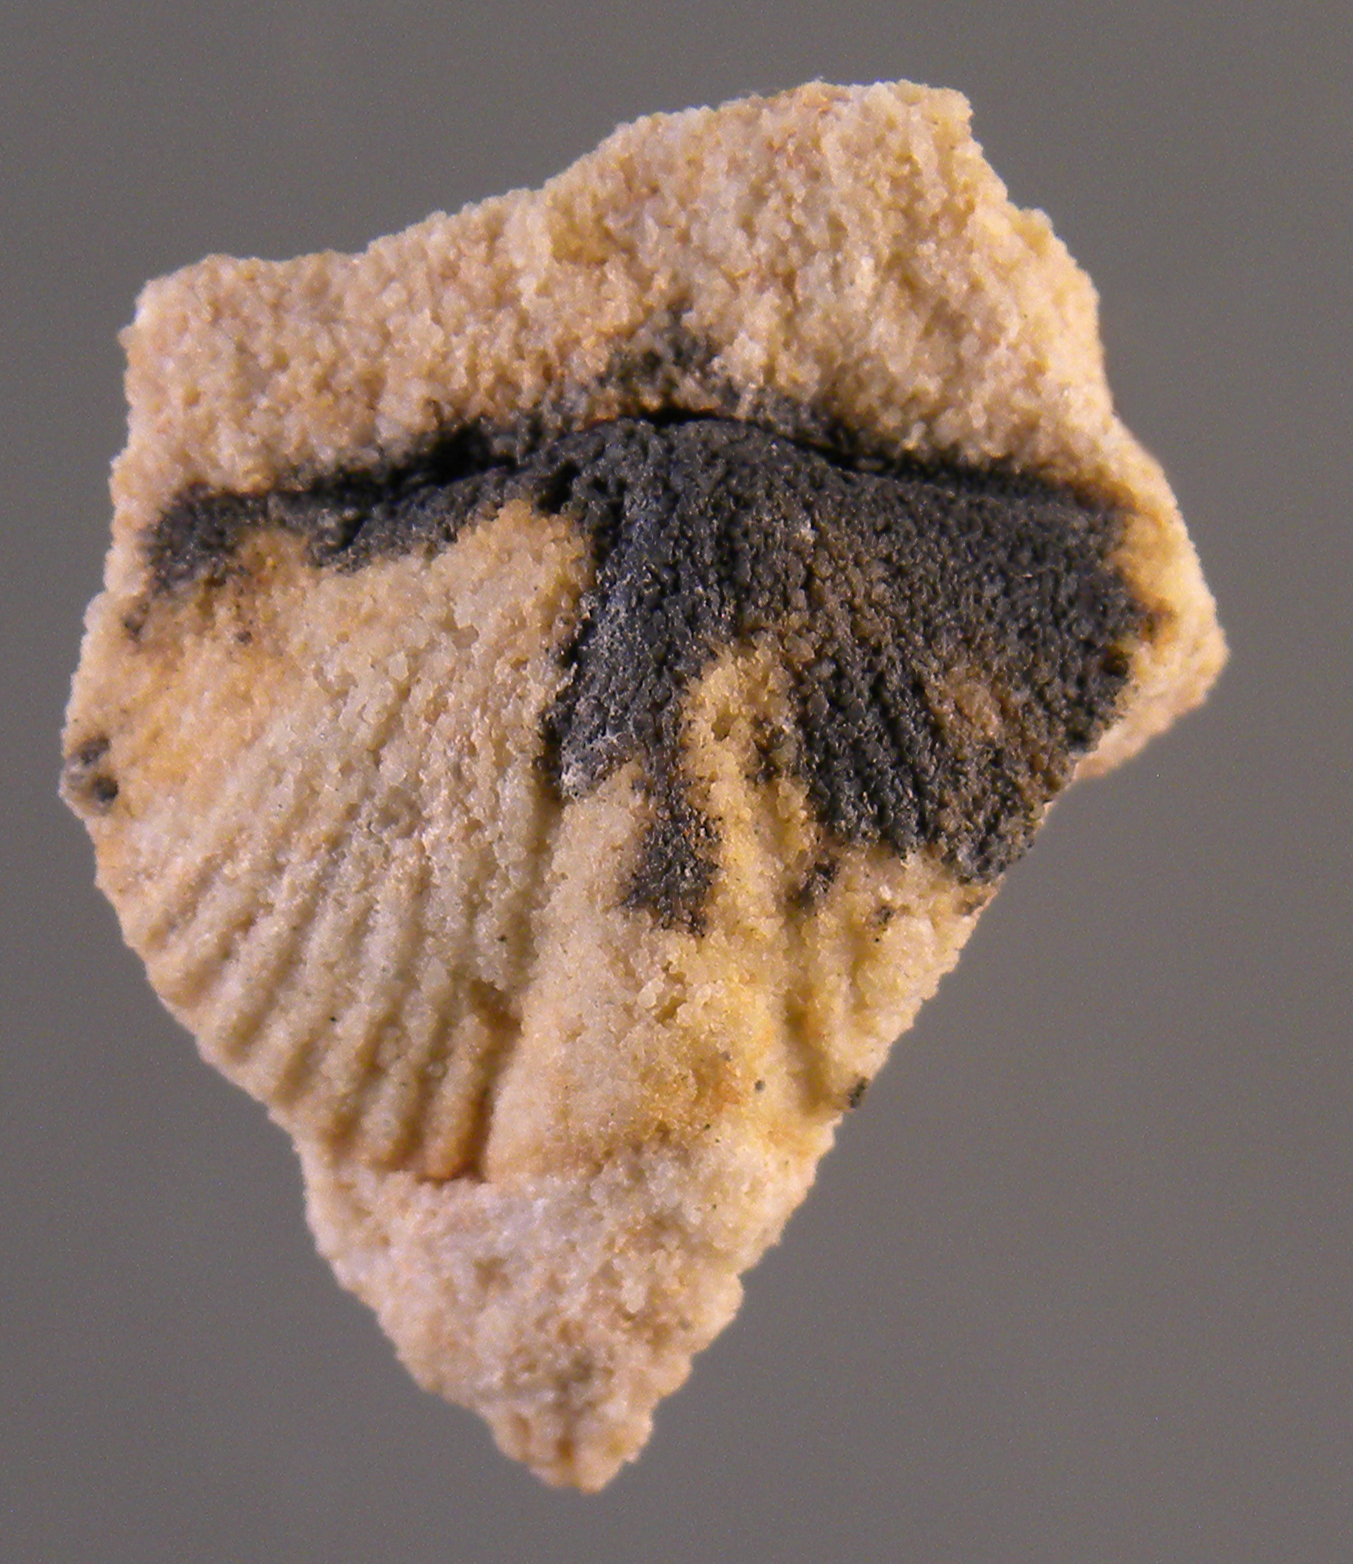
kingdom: Animalia
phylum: Brachiopoda
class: Rhynchonellata
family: Spinocyrtiidae
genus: Subcuspidella
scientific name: Subcuspidella
